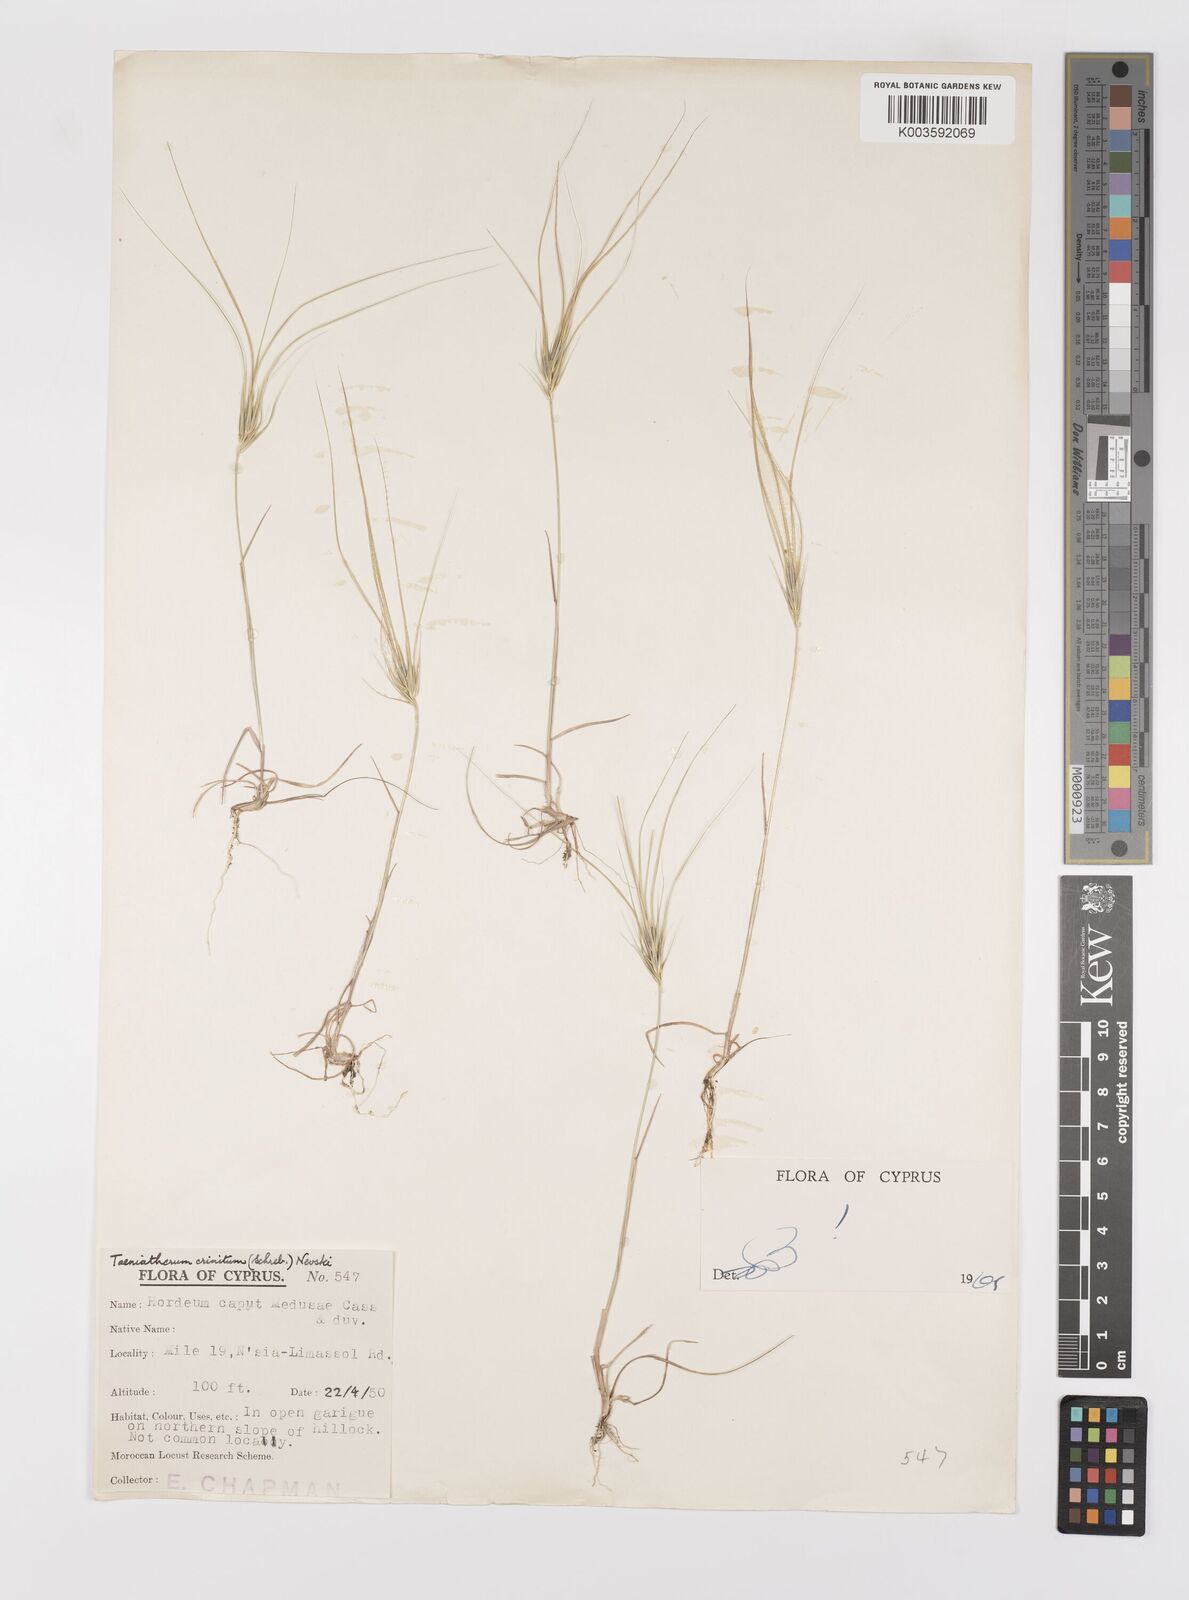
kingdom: Plantae
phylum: Tracheophyta
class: Liliopsida
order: Poales
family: Poaceae
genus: Taeniatherum
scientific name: Taeniatherum caput-medusae
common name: Medusahead
